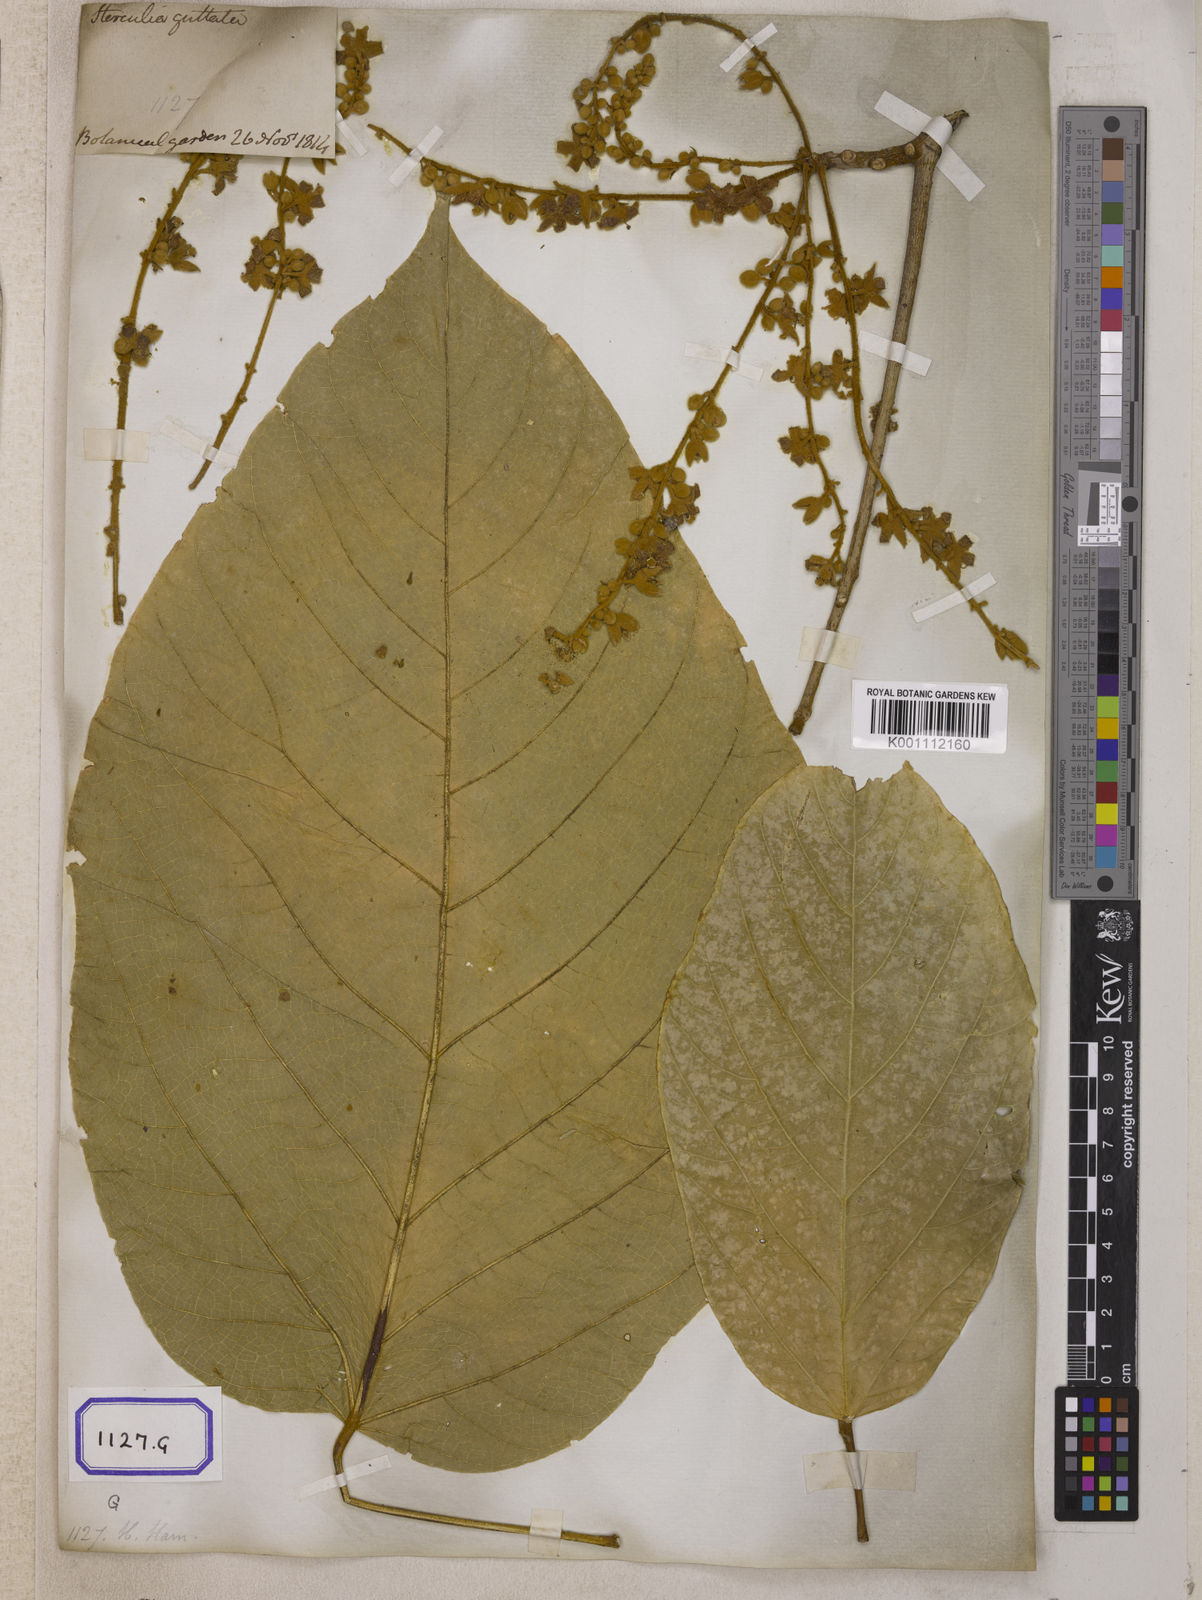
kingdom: Plantae
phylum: Tracheophyta
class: Magnoliopsida
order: Malvales
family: Malvaceae
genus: Sterculia
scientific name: Sterculia guttata
